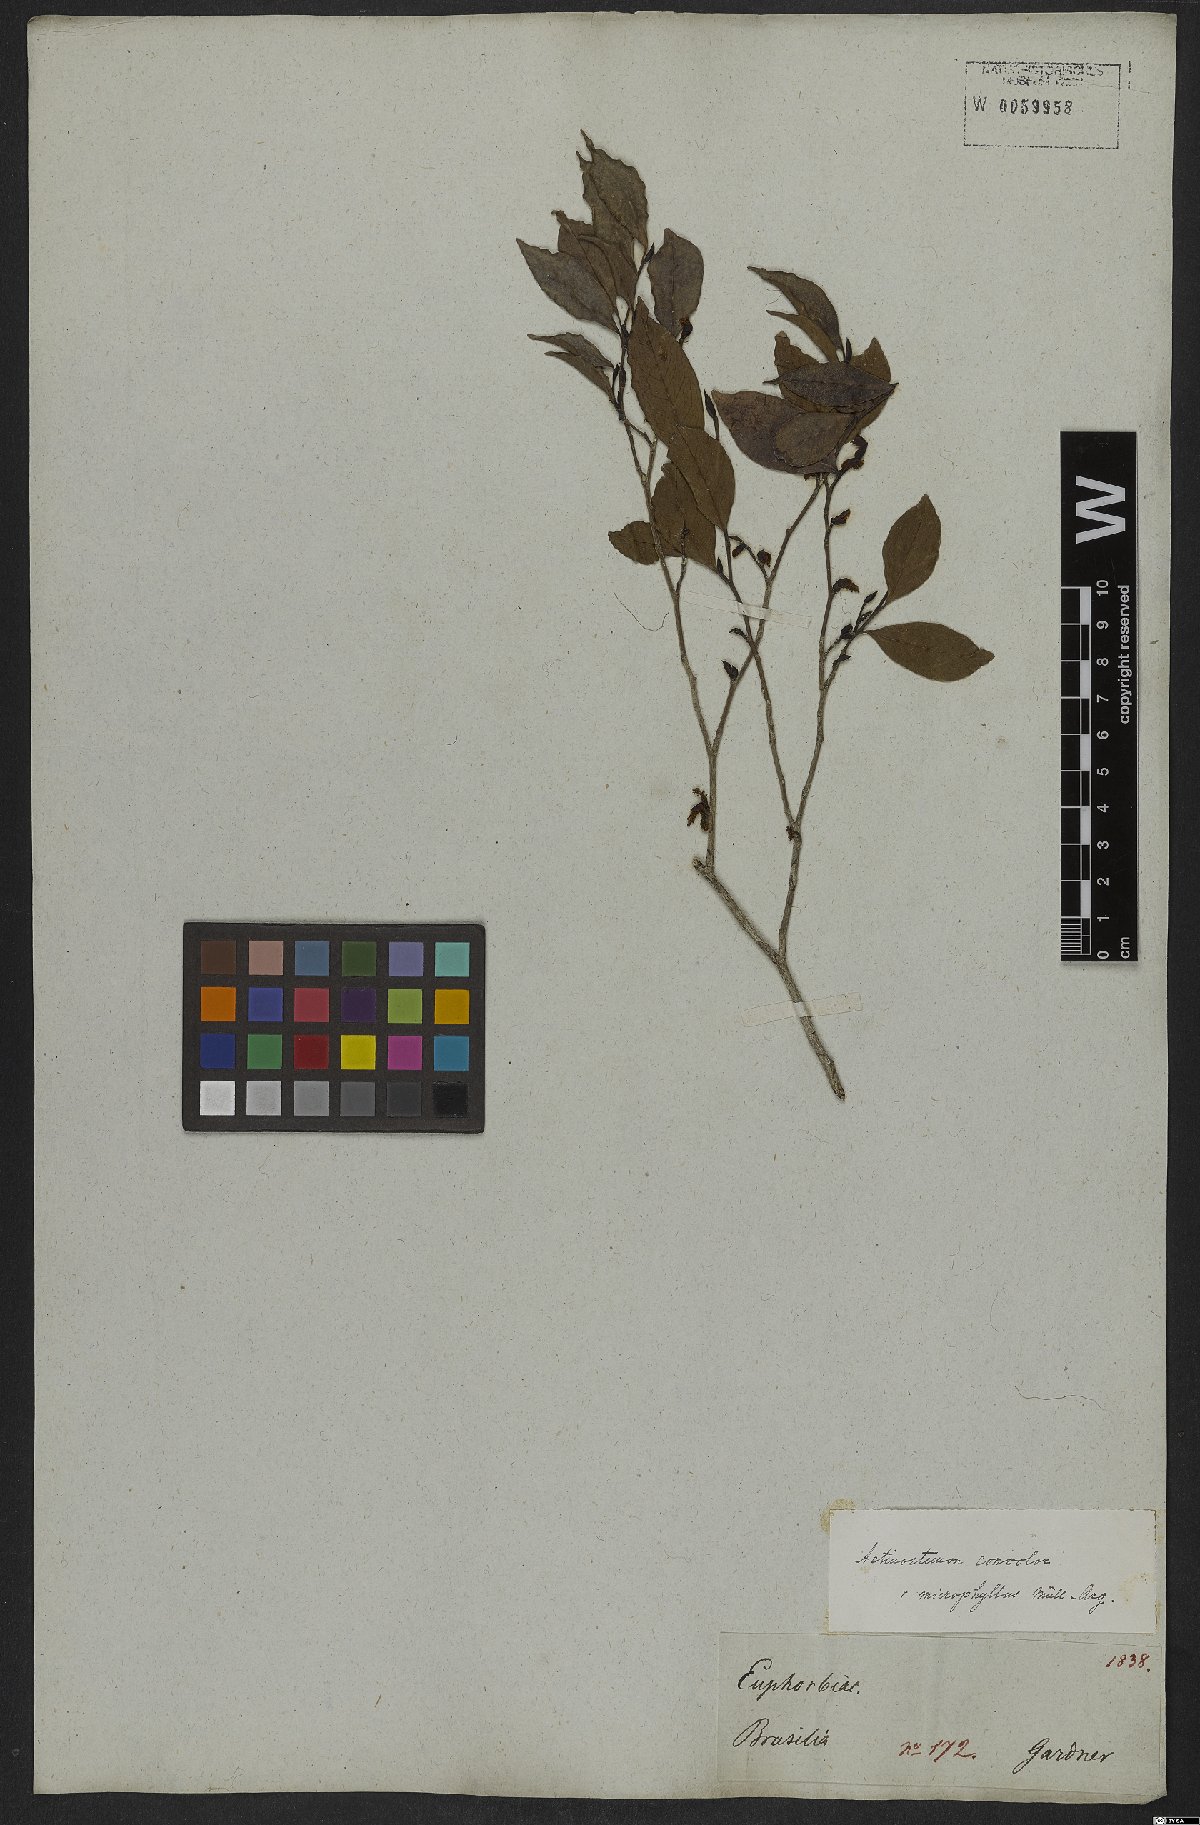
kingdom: Plantae
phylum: Tracheophyta
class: Magnoliopsida
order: Malpighiales
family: Euphorbiaceae
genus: Actinostemon
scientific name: Actinostemon concolor
